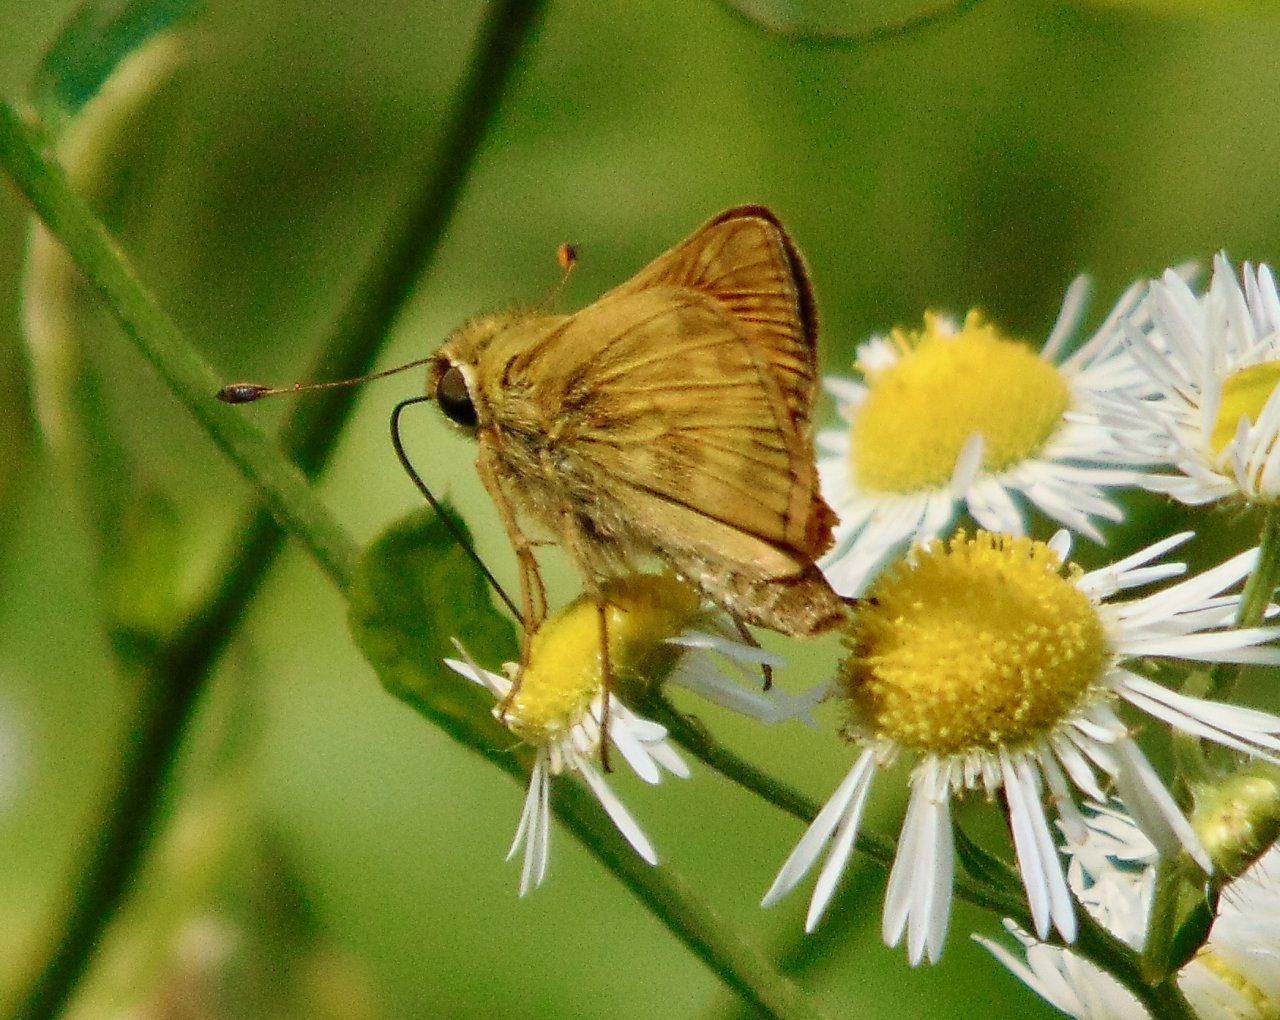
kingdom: Animalia
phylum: Arthropoda
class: Insecta
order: Lepidoptera
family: Hesperiidae
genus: Atalopedes
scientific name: Atalopedes campestris
